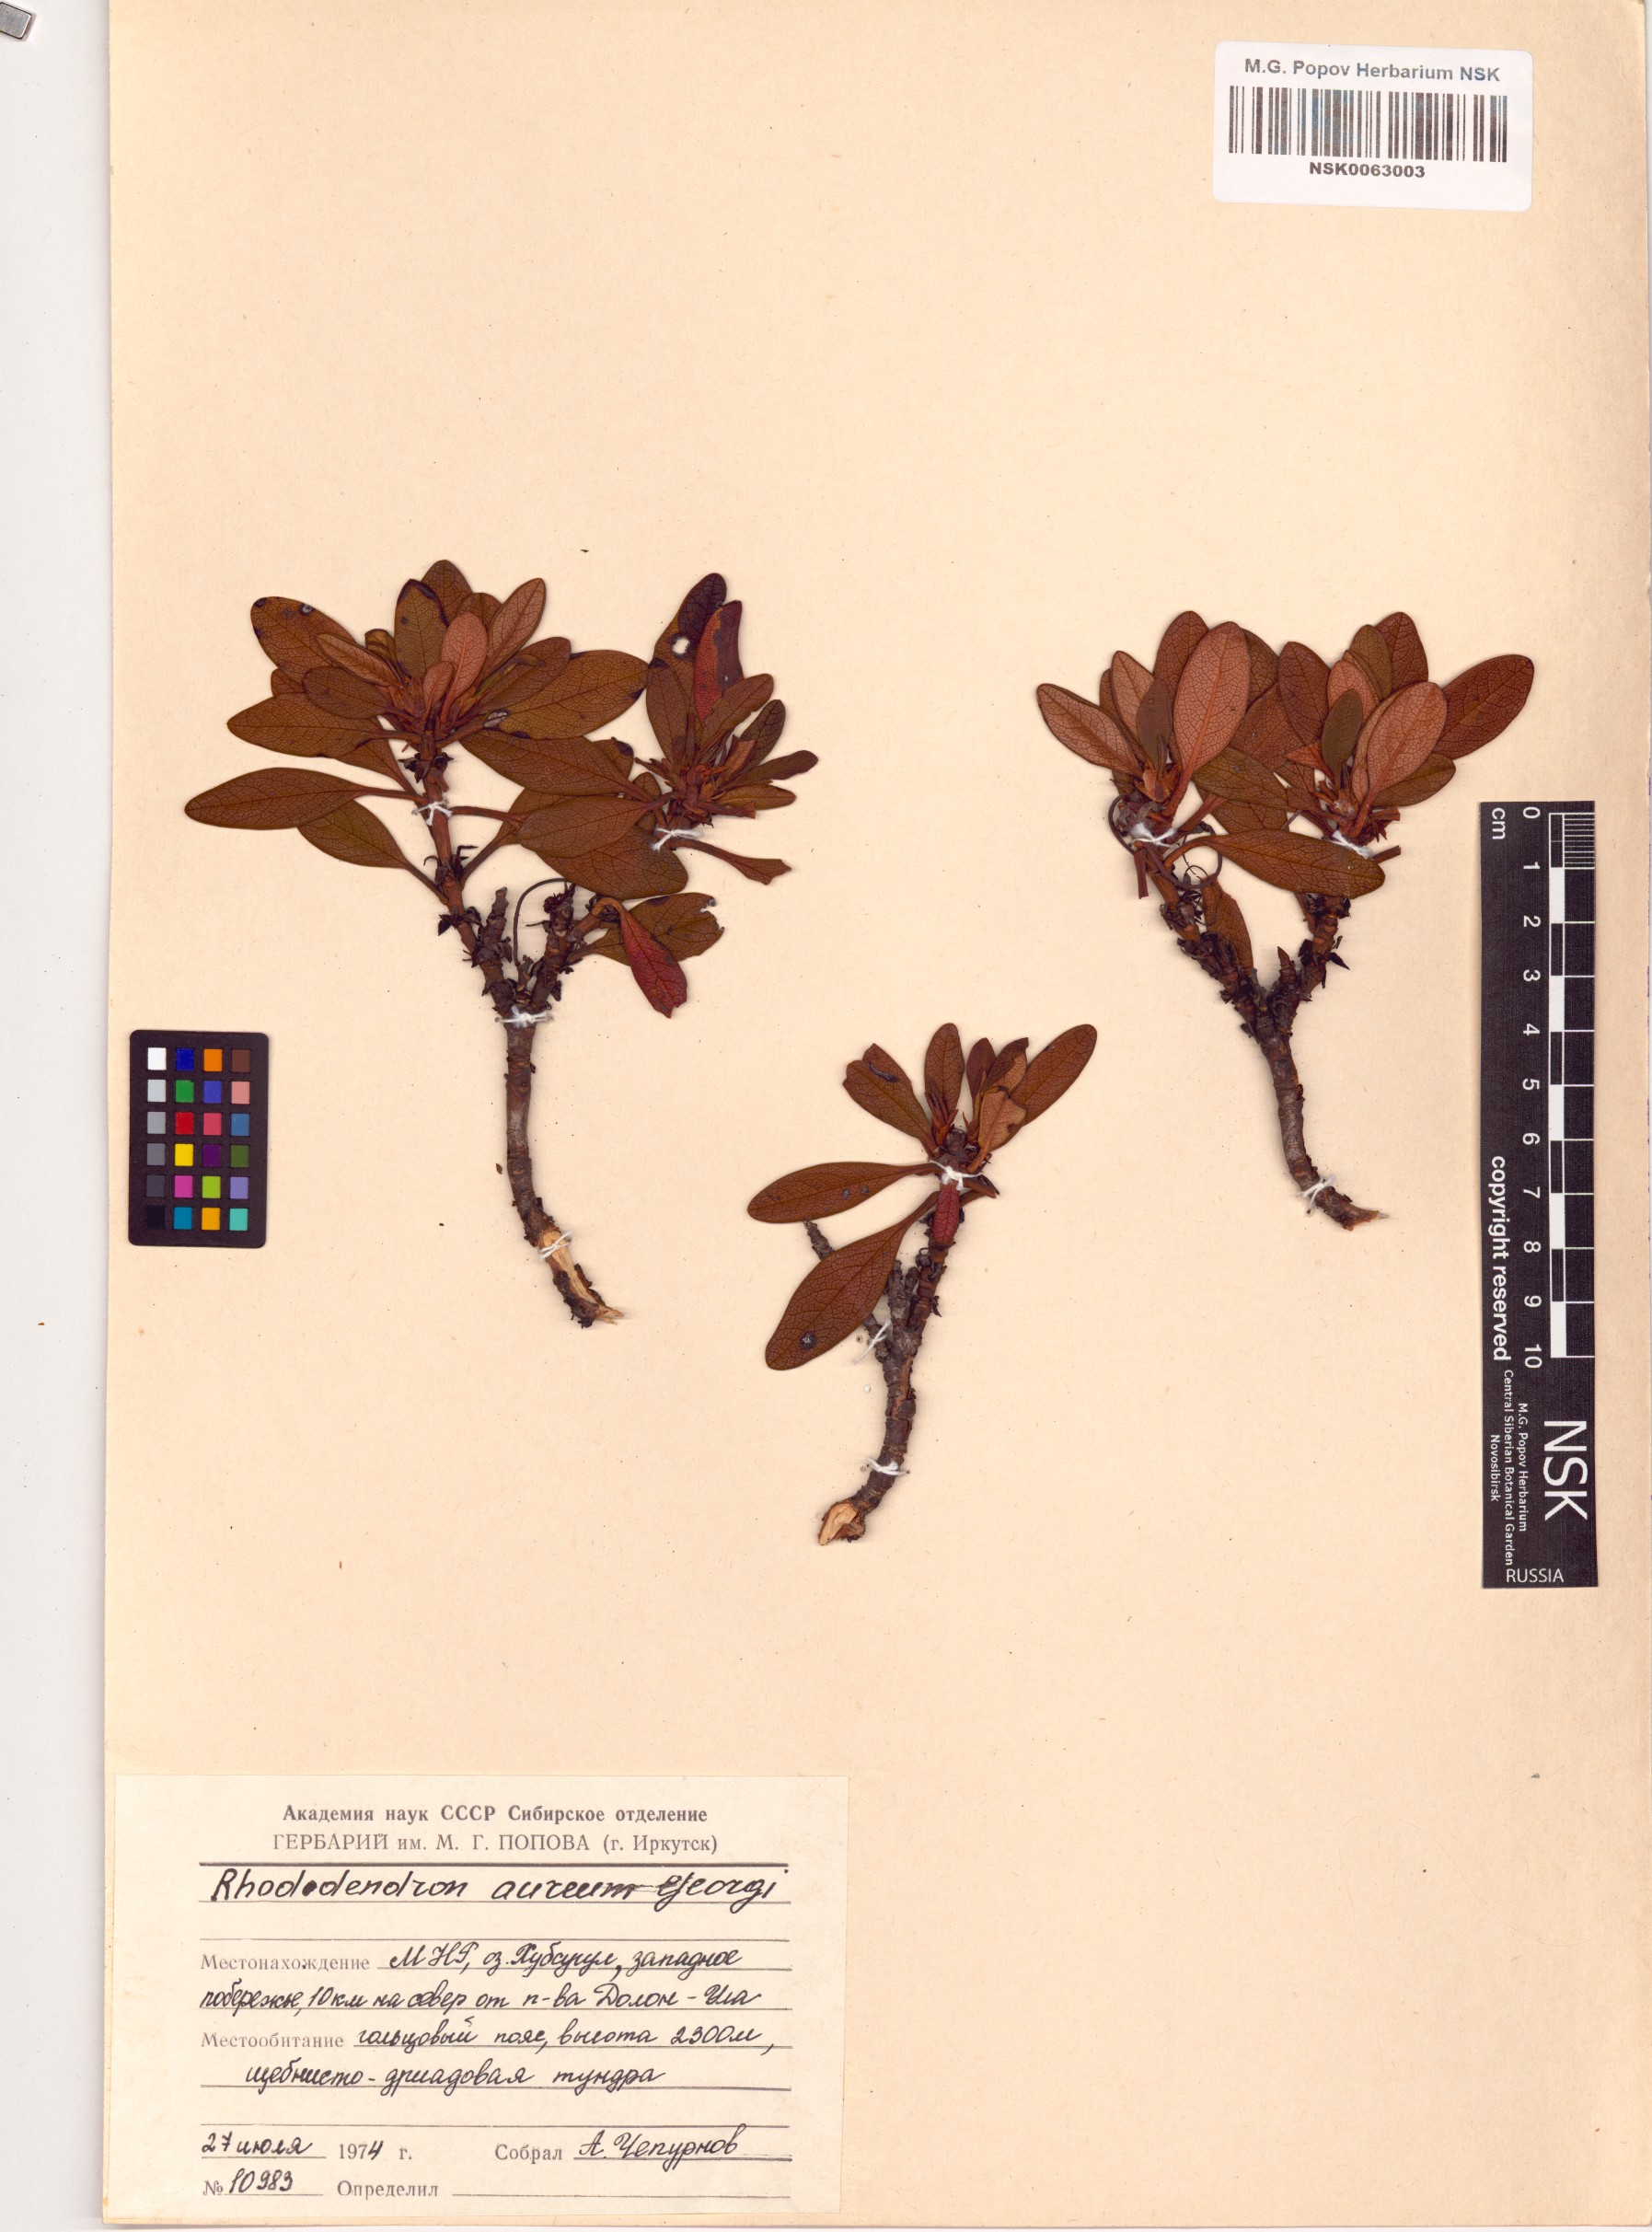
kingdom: Plantae
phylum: Tracheophyta
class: Magnoliopsida
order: Ericales
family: Ericaceae
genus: Rhododendron
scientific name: Rhododendron aureum
